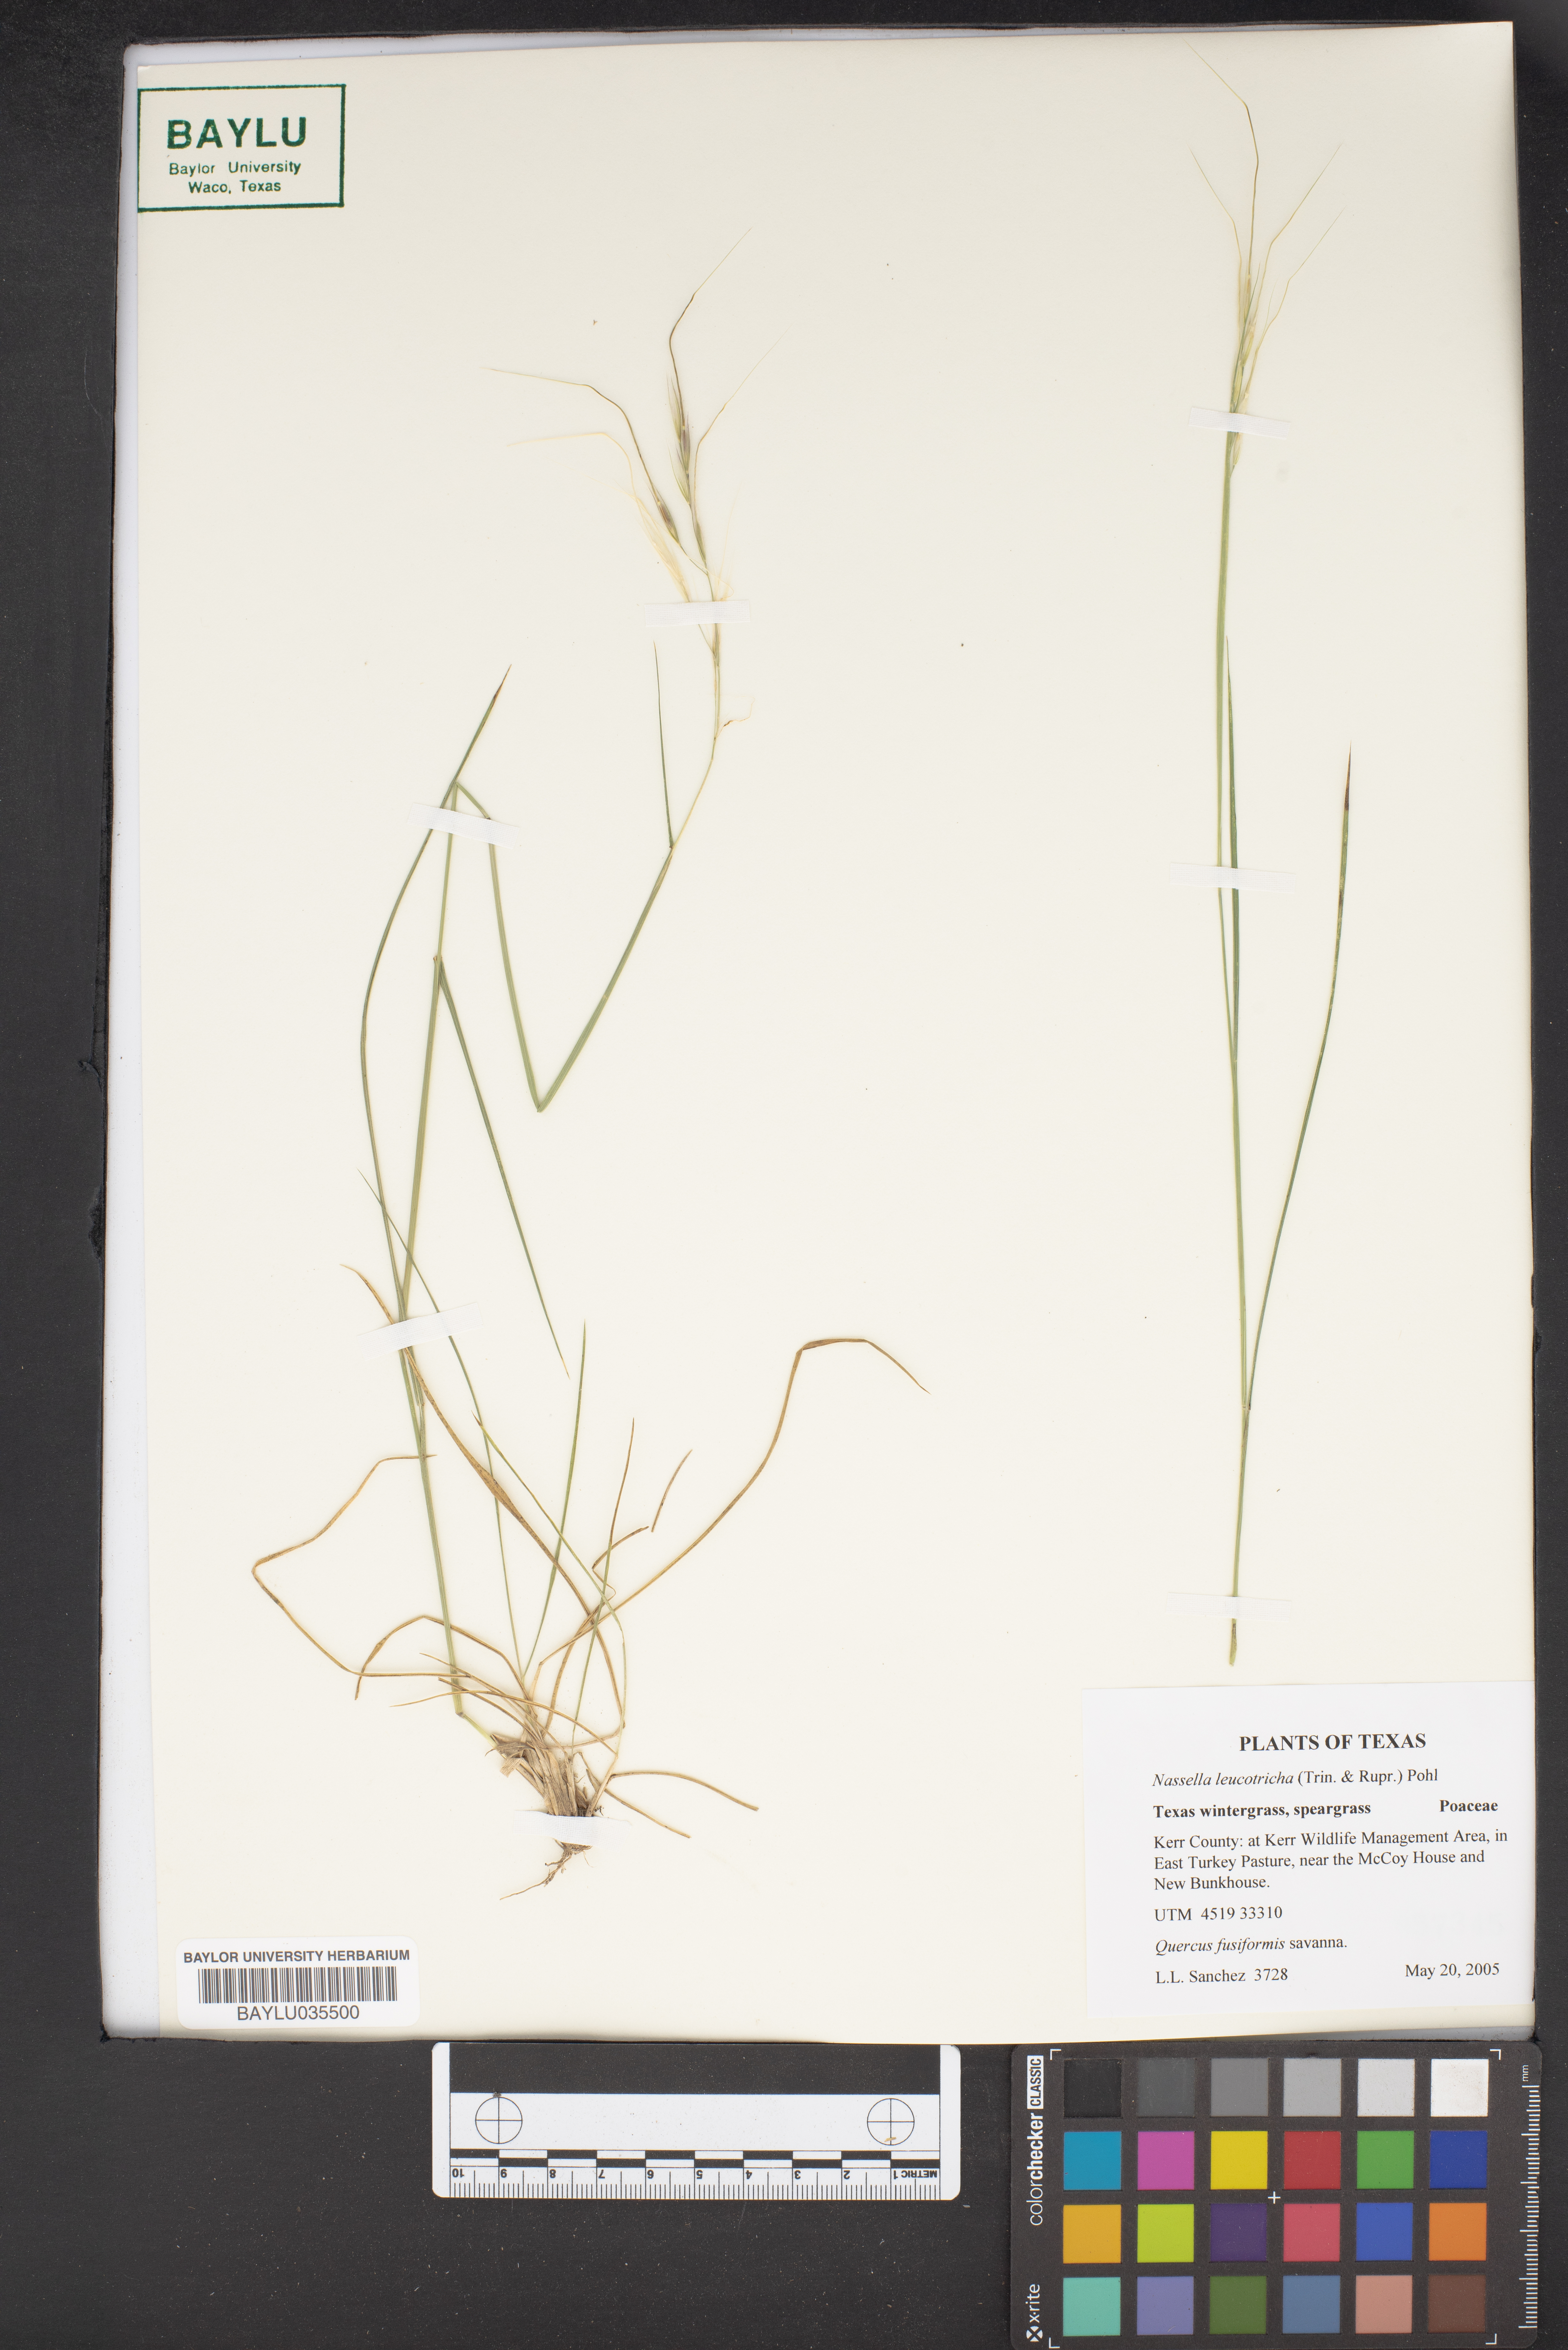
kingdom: Plantae
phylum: Tracheophyta
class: Liliopsida
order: Poales
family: Poaceae
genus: Nassella
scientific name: Nassella leucotricha
